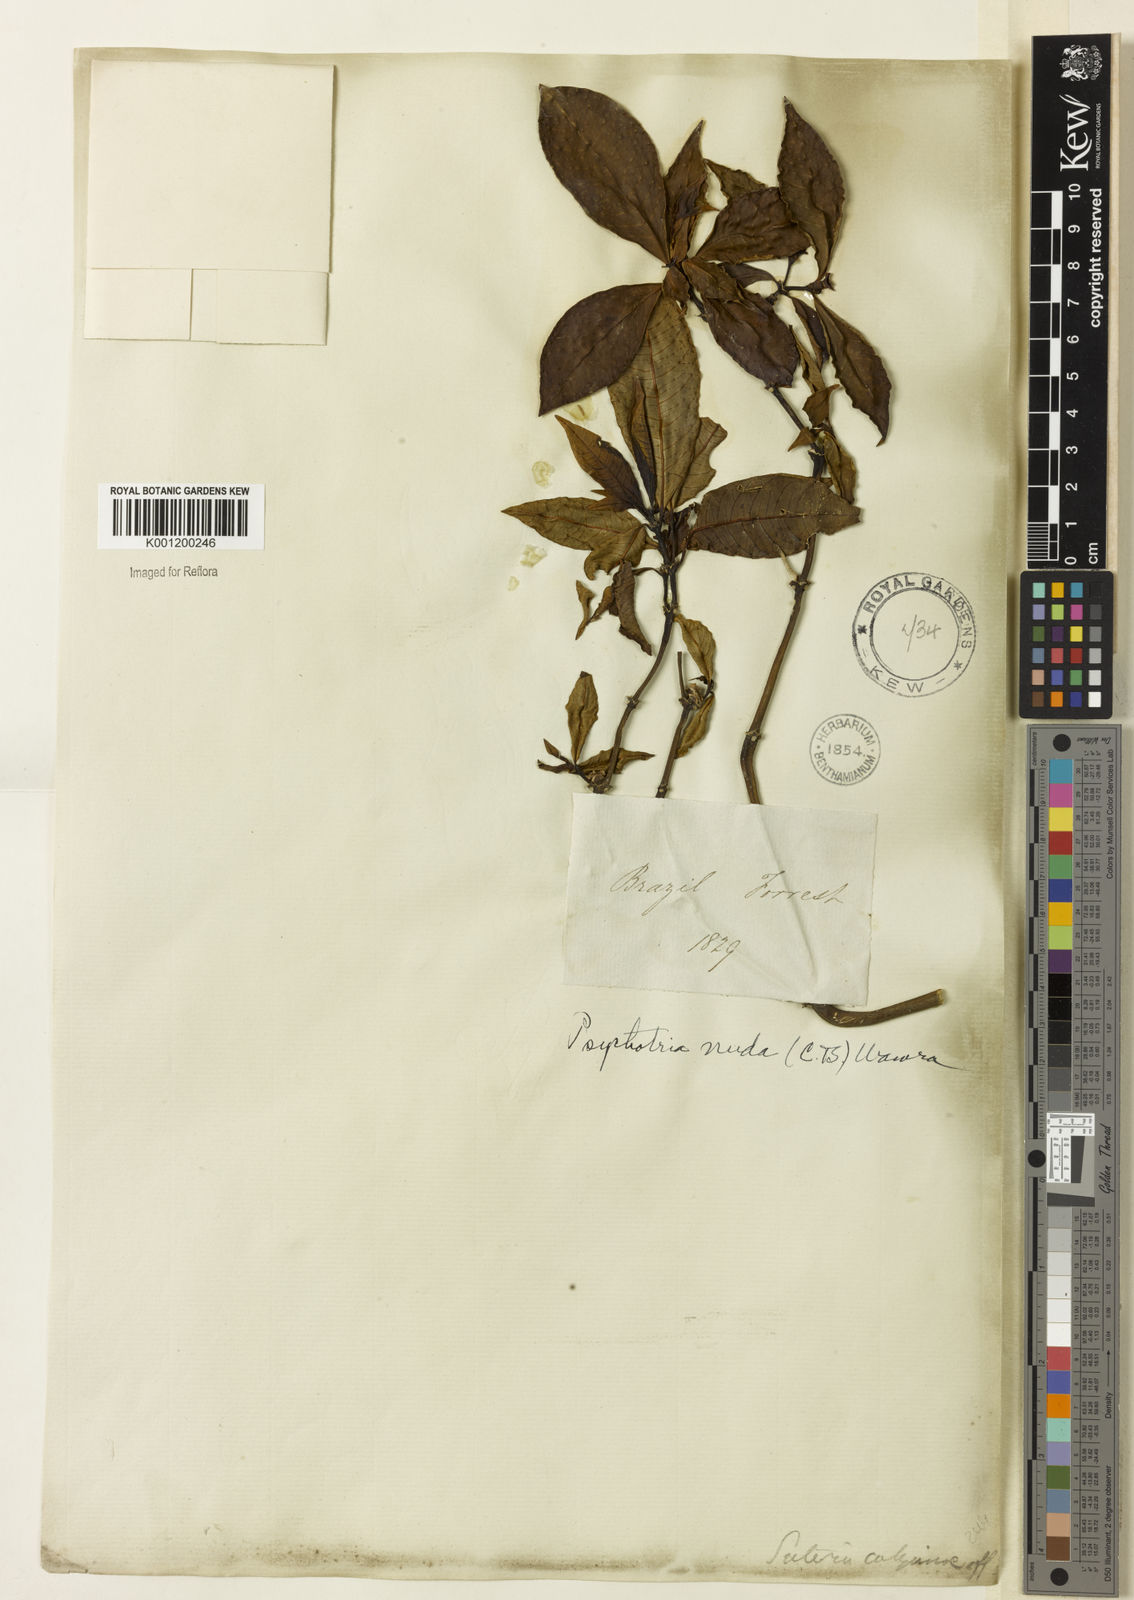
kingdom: Plantae
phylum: Tracheophyta
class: Magnoliopsida
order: Gentianales
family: Rubiaceae
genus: Psychotria
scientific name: Psychotria
